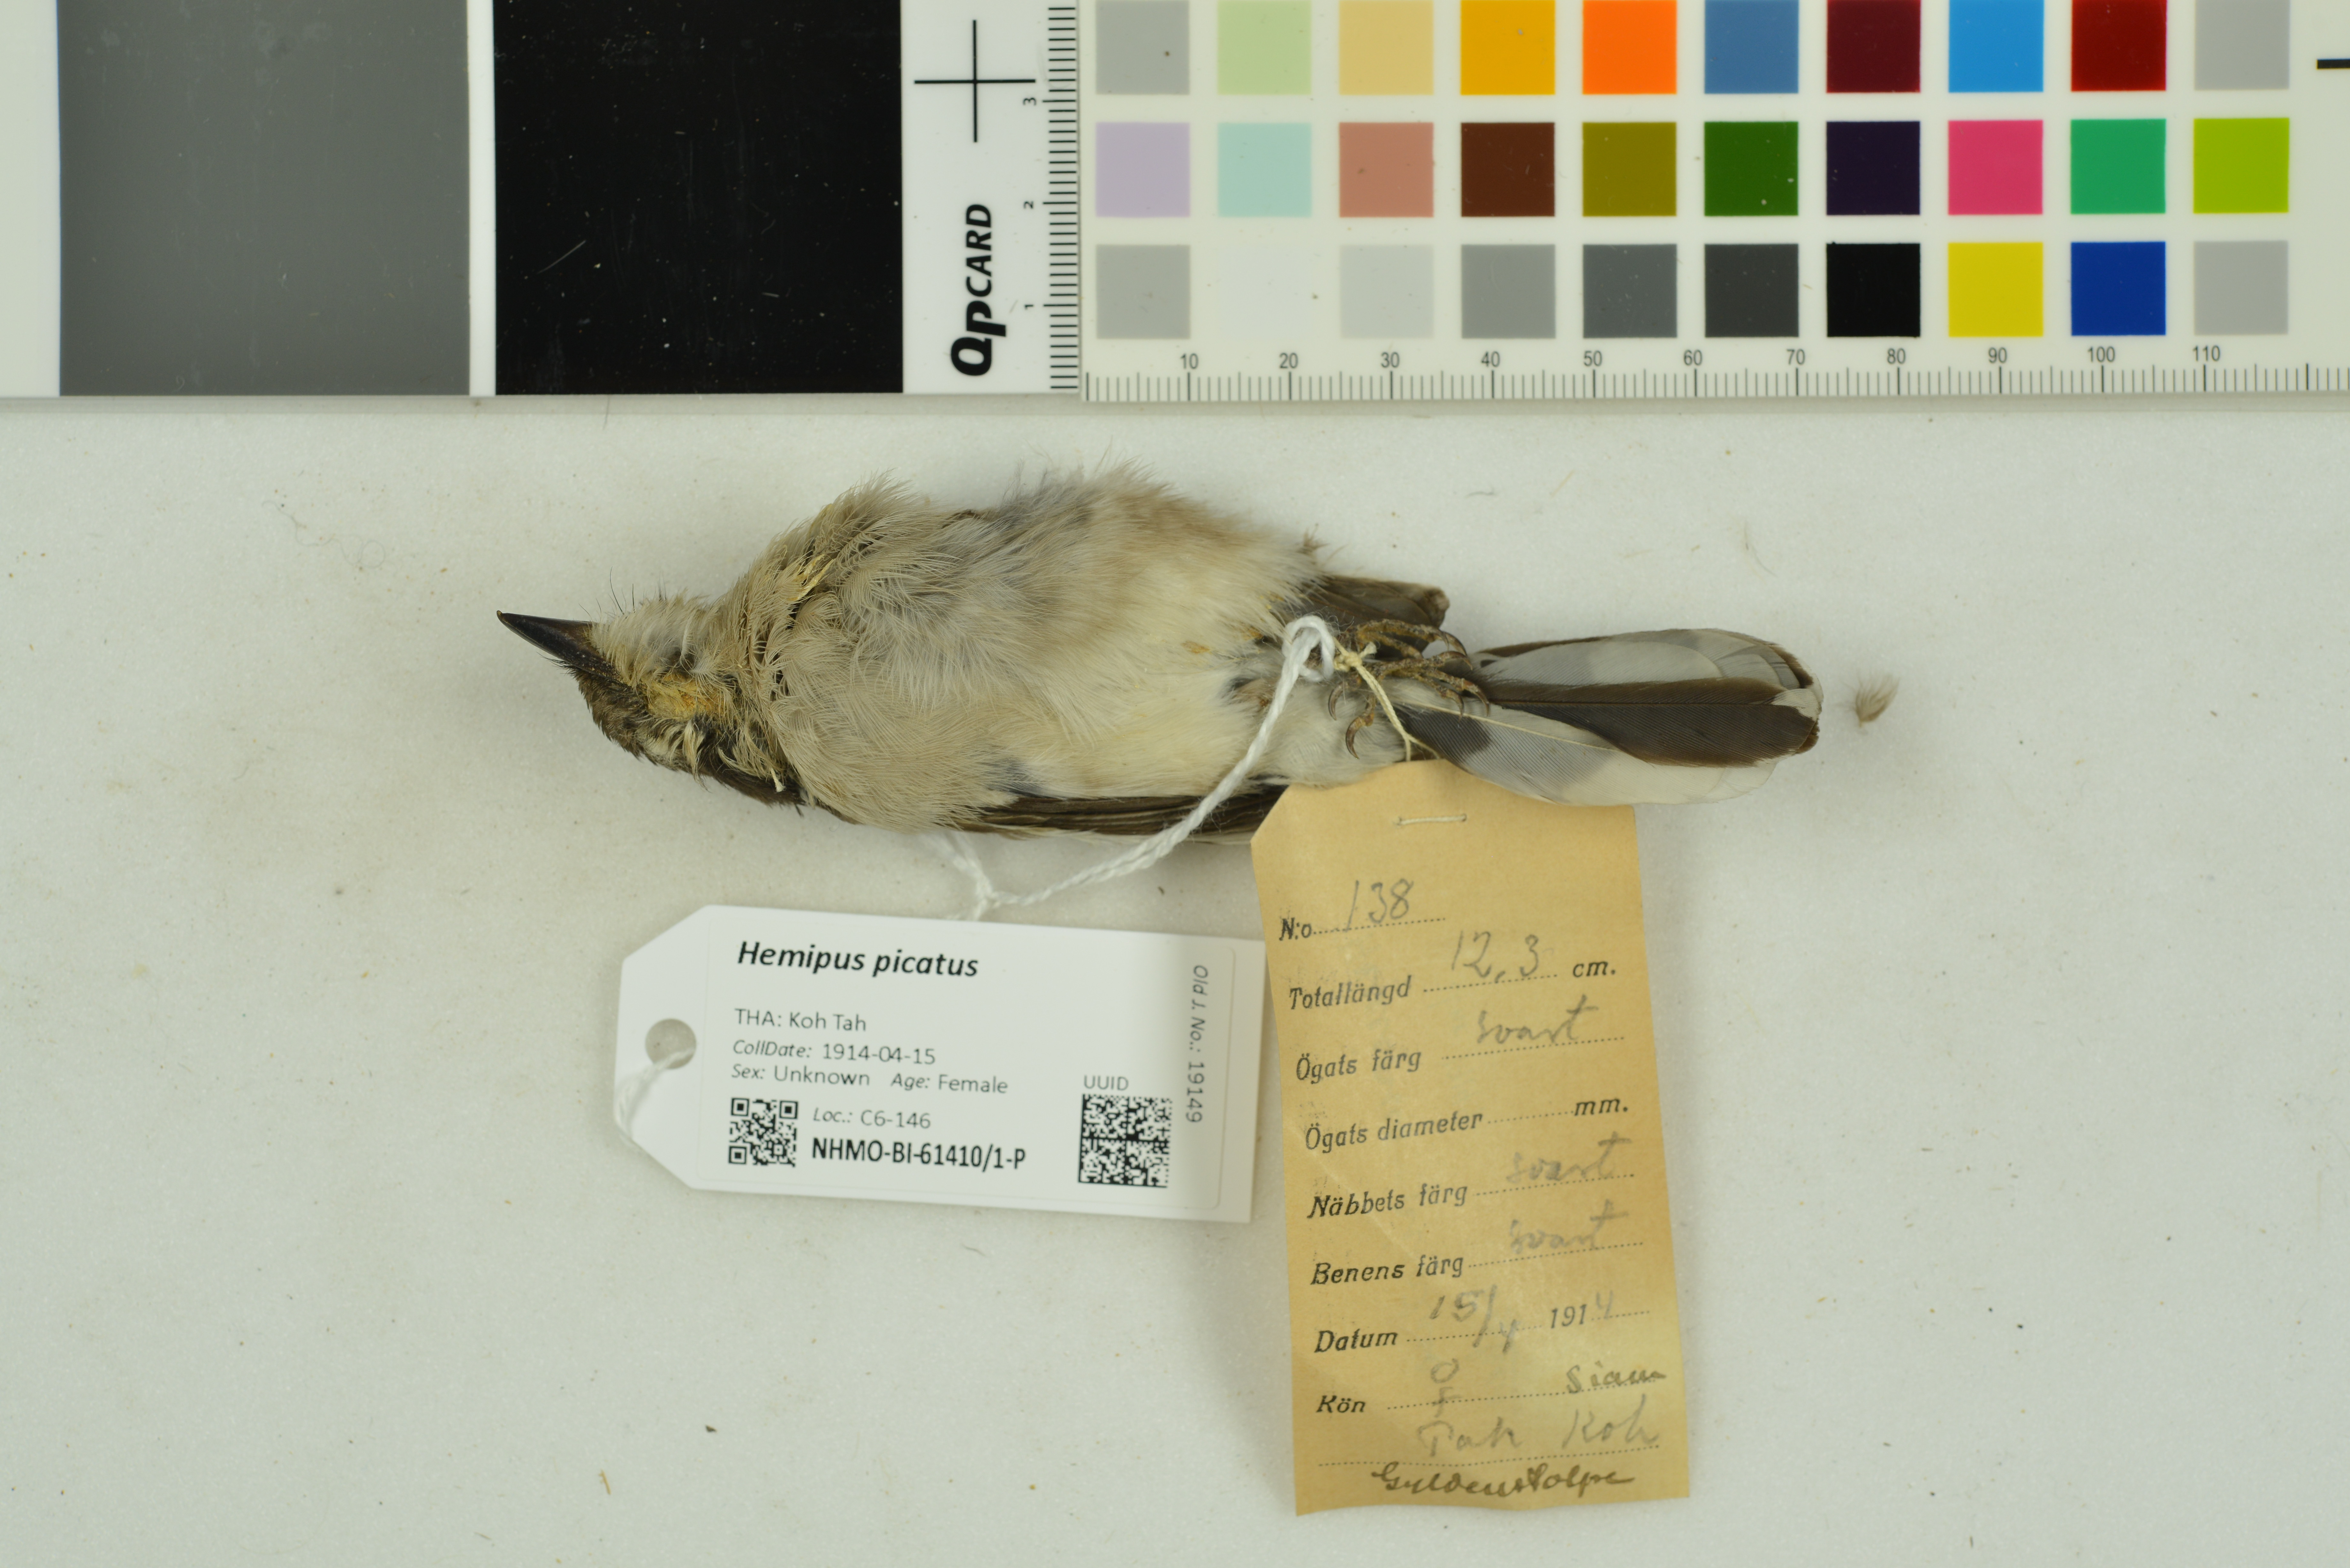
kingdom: Animalia
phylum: Chordata
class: Aves
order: Passeriformes
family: Tephrodornithidae
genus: Hemipus
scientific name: Hemipus picatus
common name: Bar-winged flycatcher-shrike
